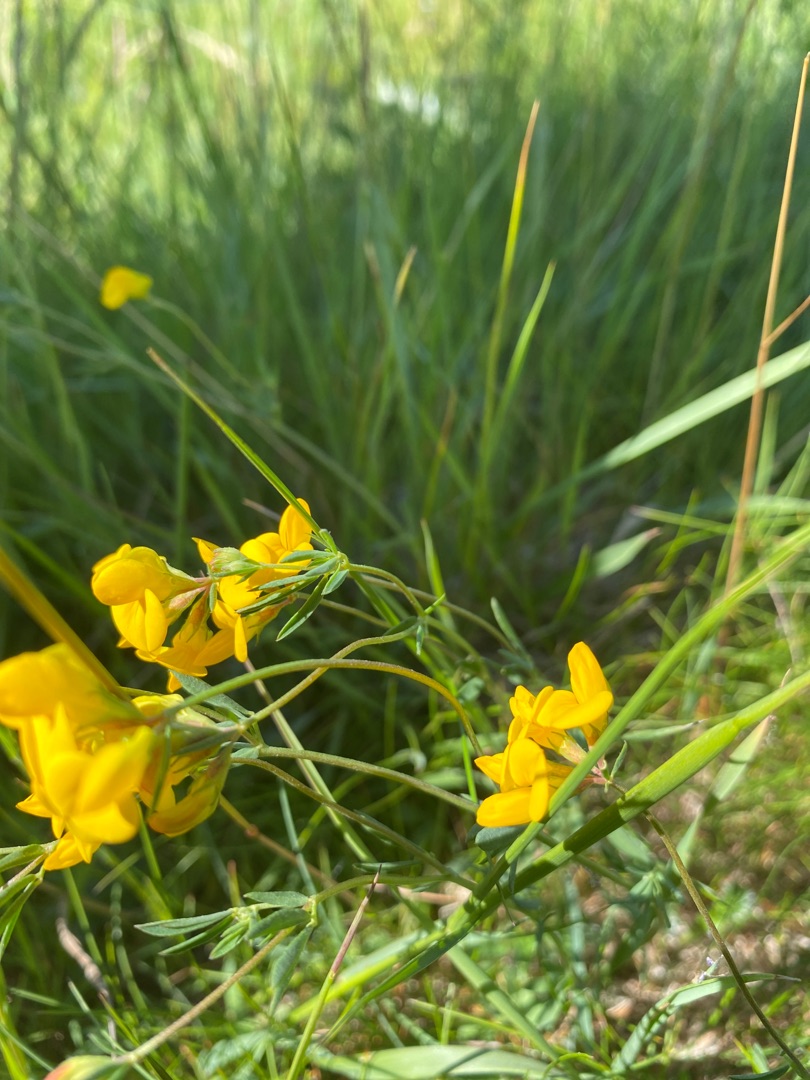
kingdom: Plantae
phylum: Tracheophyta
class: Magnoliopsida
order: Fabales
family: Fabaceae
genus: Lotus
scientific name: Lotus tenuis
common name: Smalbladet kællingetand
